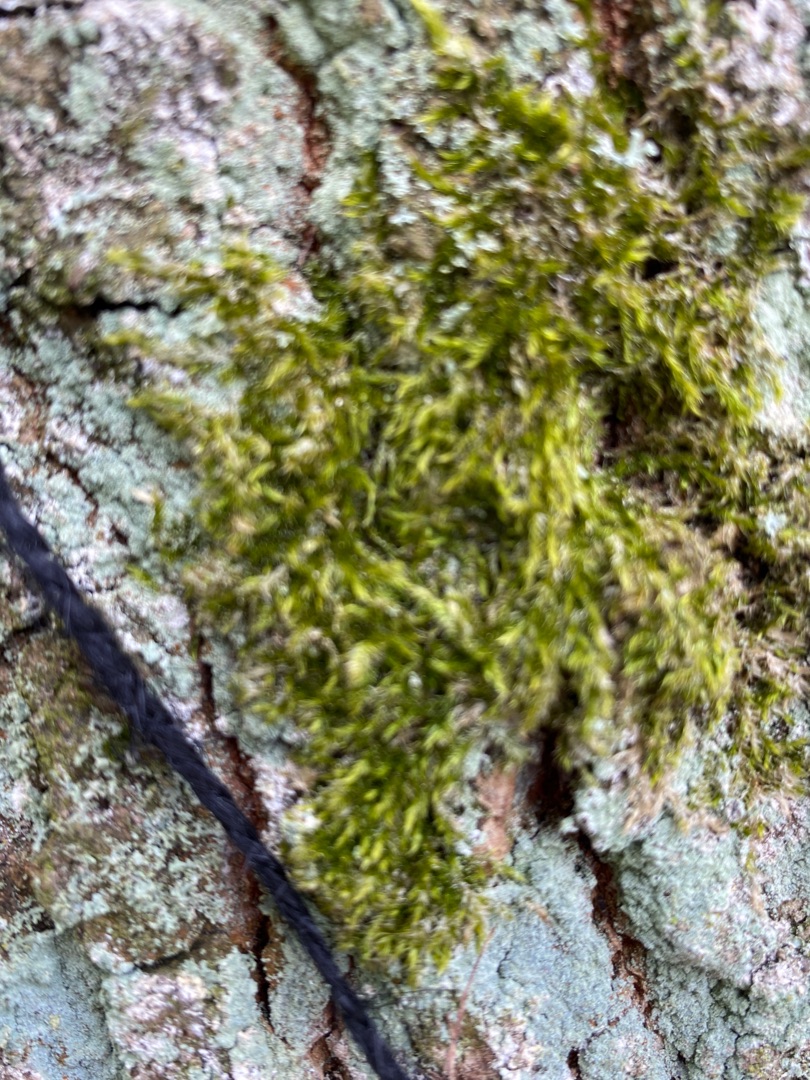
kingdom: Plantae
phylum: Bryophyta
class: Bryopsida
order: Hypnales
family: Hypnaceae
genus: Hypnum
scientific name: Hypnum
